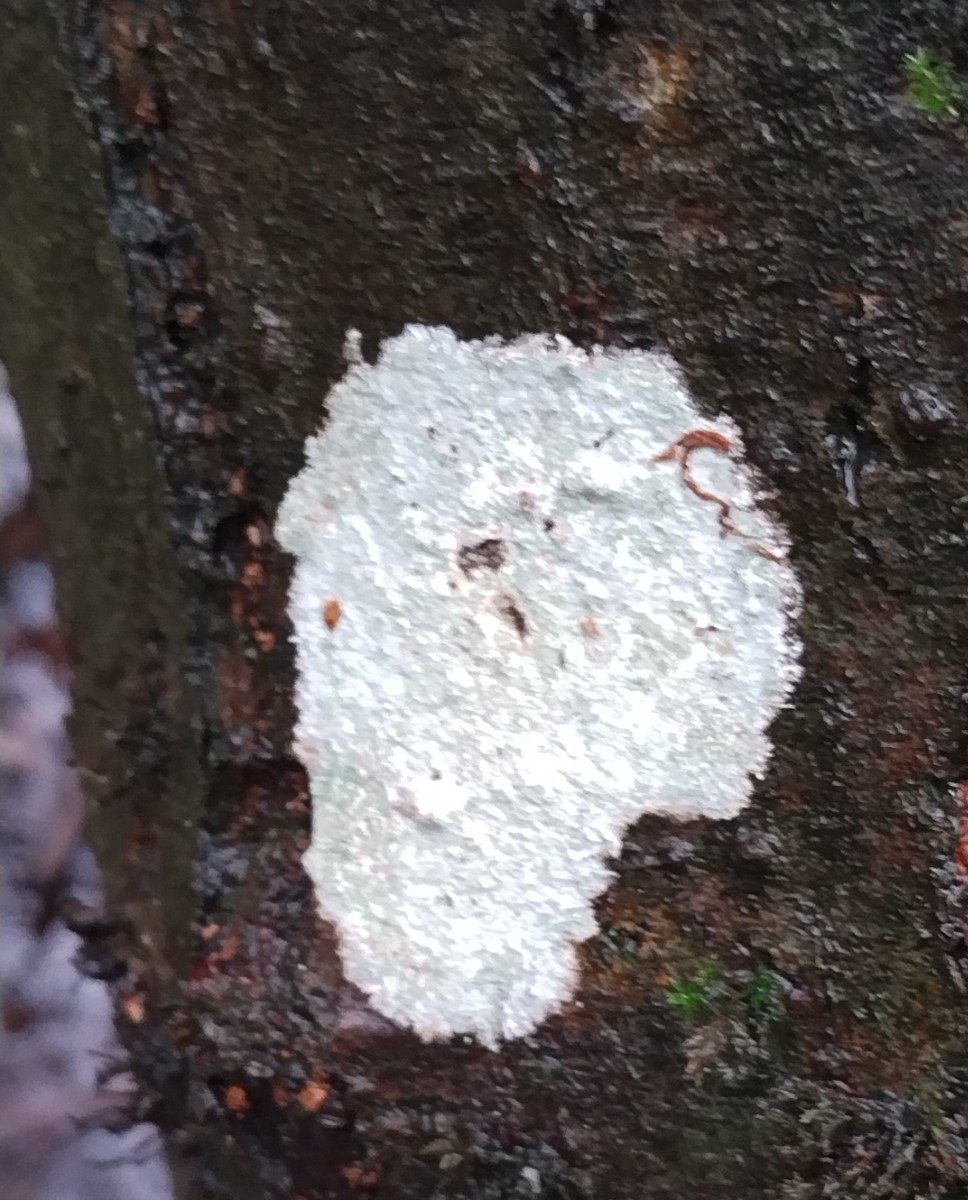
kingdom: Fungi
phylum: Ascomycota
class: Lecanoromycetes
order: Ostropales
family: Phlyctidaceae
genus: Phlyctis
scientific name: Phlyctis argena
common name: almindelig sølvlav
